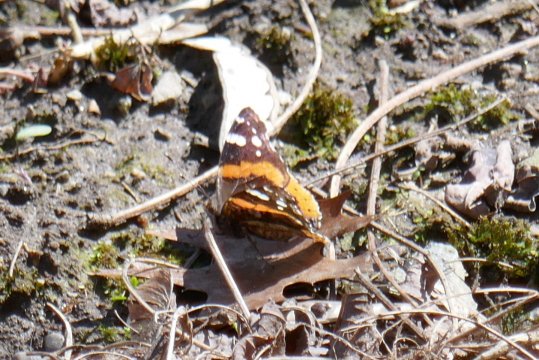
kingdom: Animalia
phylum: Arthropoda
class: Insecta
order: Lepidoptera
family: Nymphalidae
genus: Vanessa
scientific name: Vanessa atalanta
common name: Red Admiral
